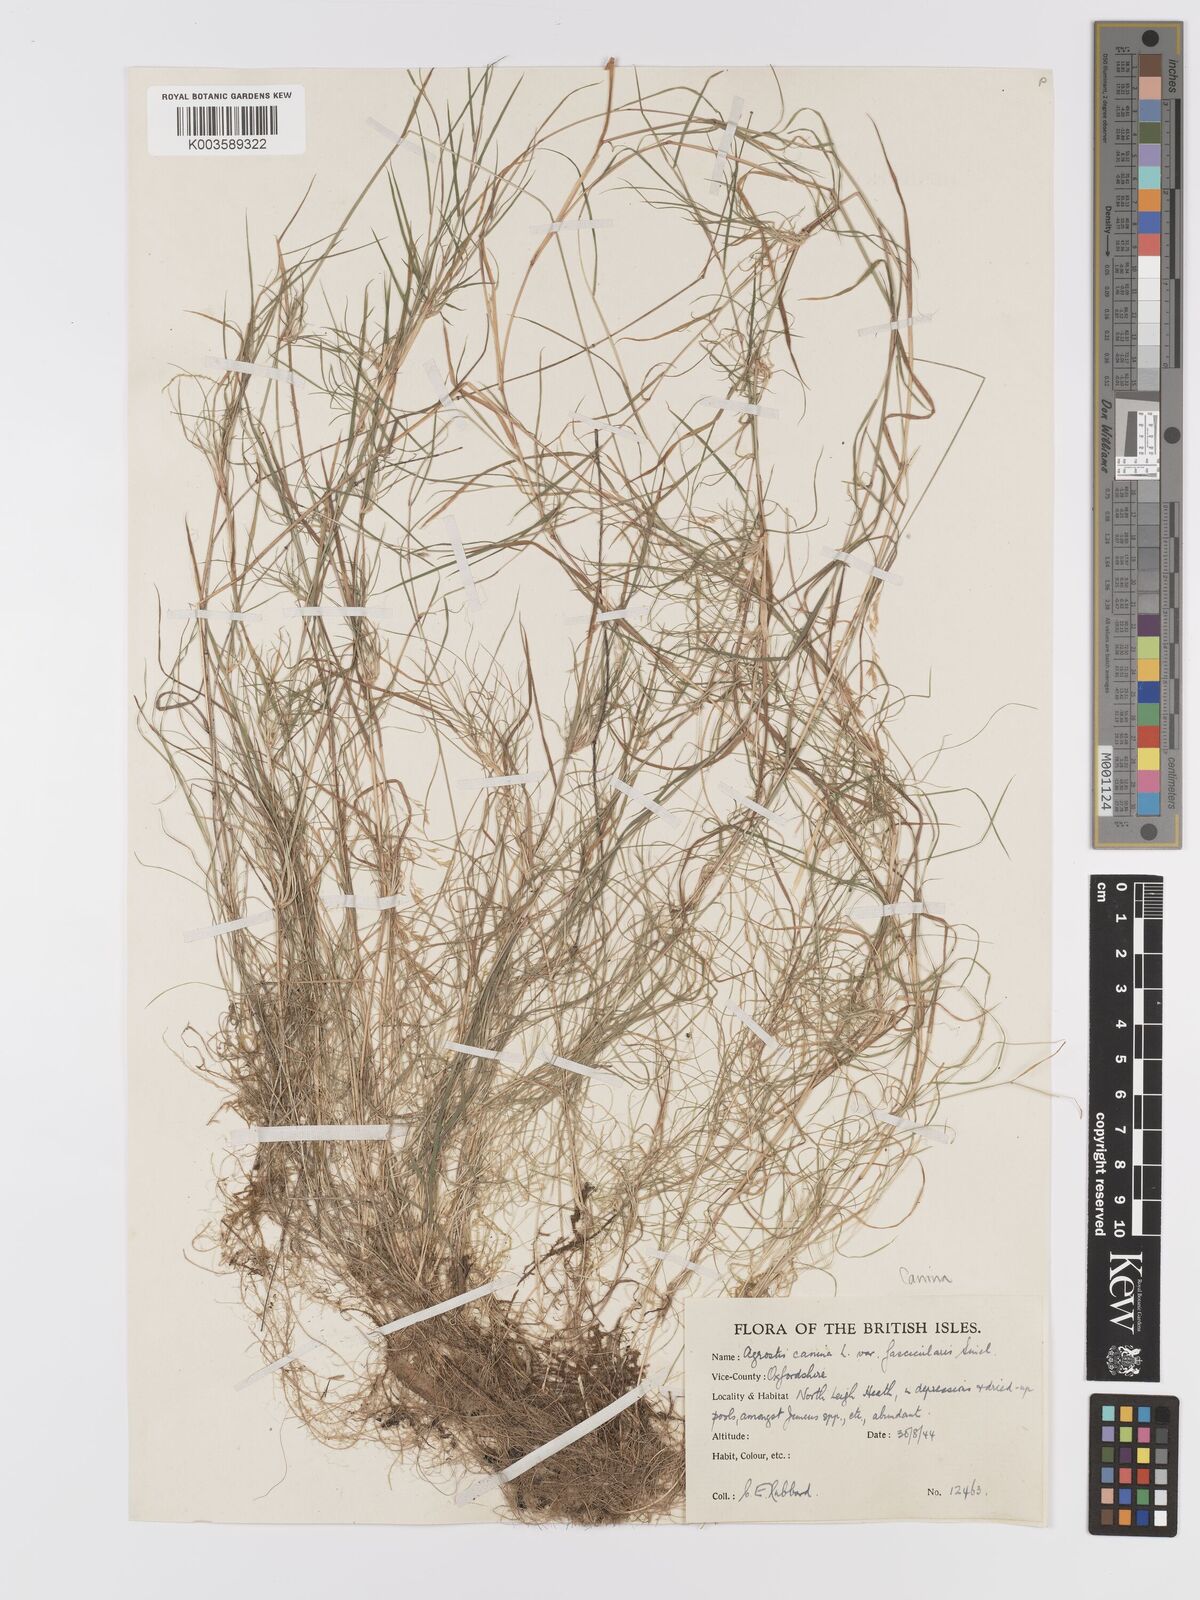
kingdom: Plantae
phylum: Tracheophyta
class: Liliopsida
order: Poales
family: Poaceae
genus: Agrostis
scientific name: Agrostis canina
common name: Velvet bent
